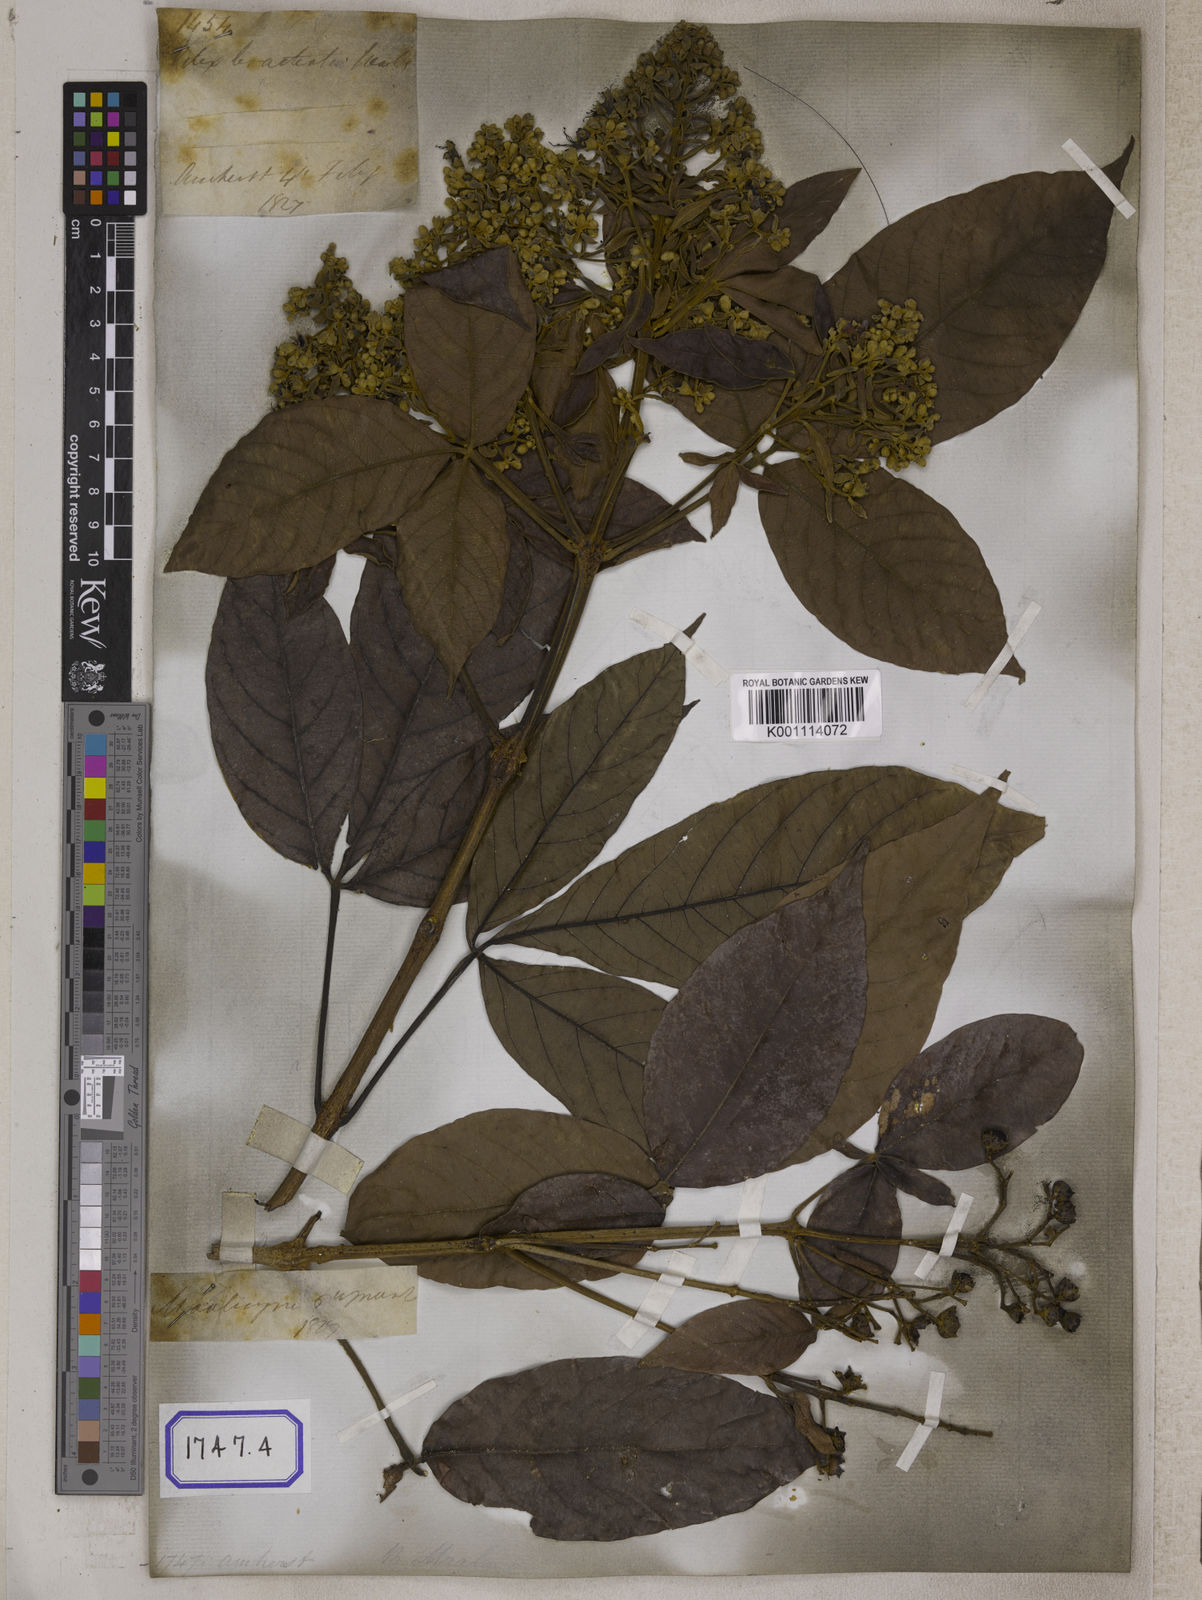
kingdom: Plantae
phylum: Tracheophyta
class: Magnoliopsida
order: Lamiales
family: Lamiaceae
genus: Vitex
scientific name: Vitex pinnata
